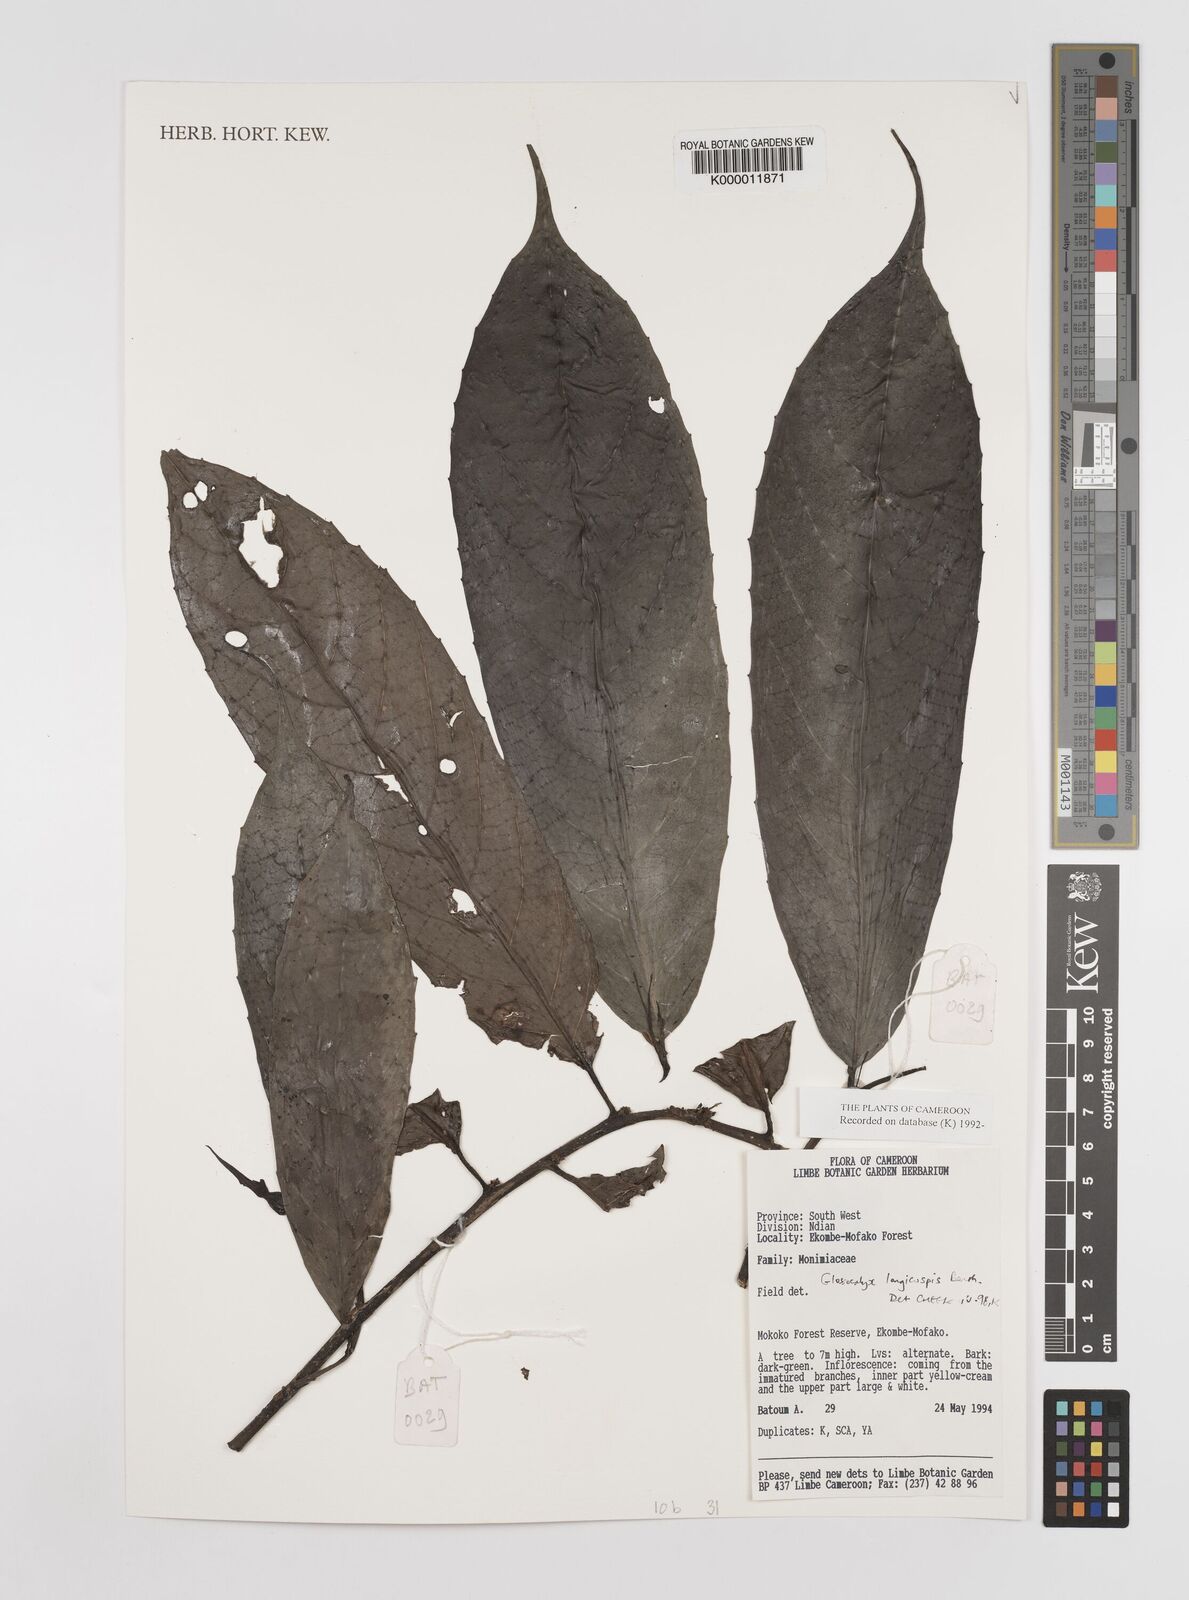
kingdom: Plantae
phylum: Tracheophyta
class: Magnoliopsida
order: Laurales
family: Siparunaceae
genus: Glossocalyx
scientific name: Glossocalyx longicuspis
